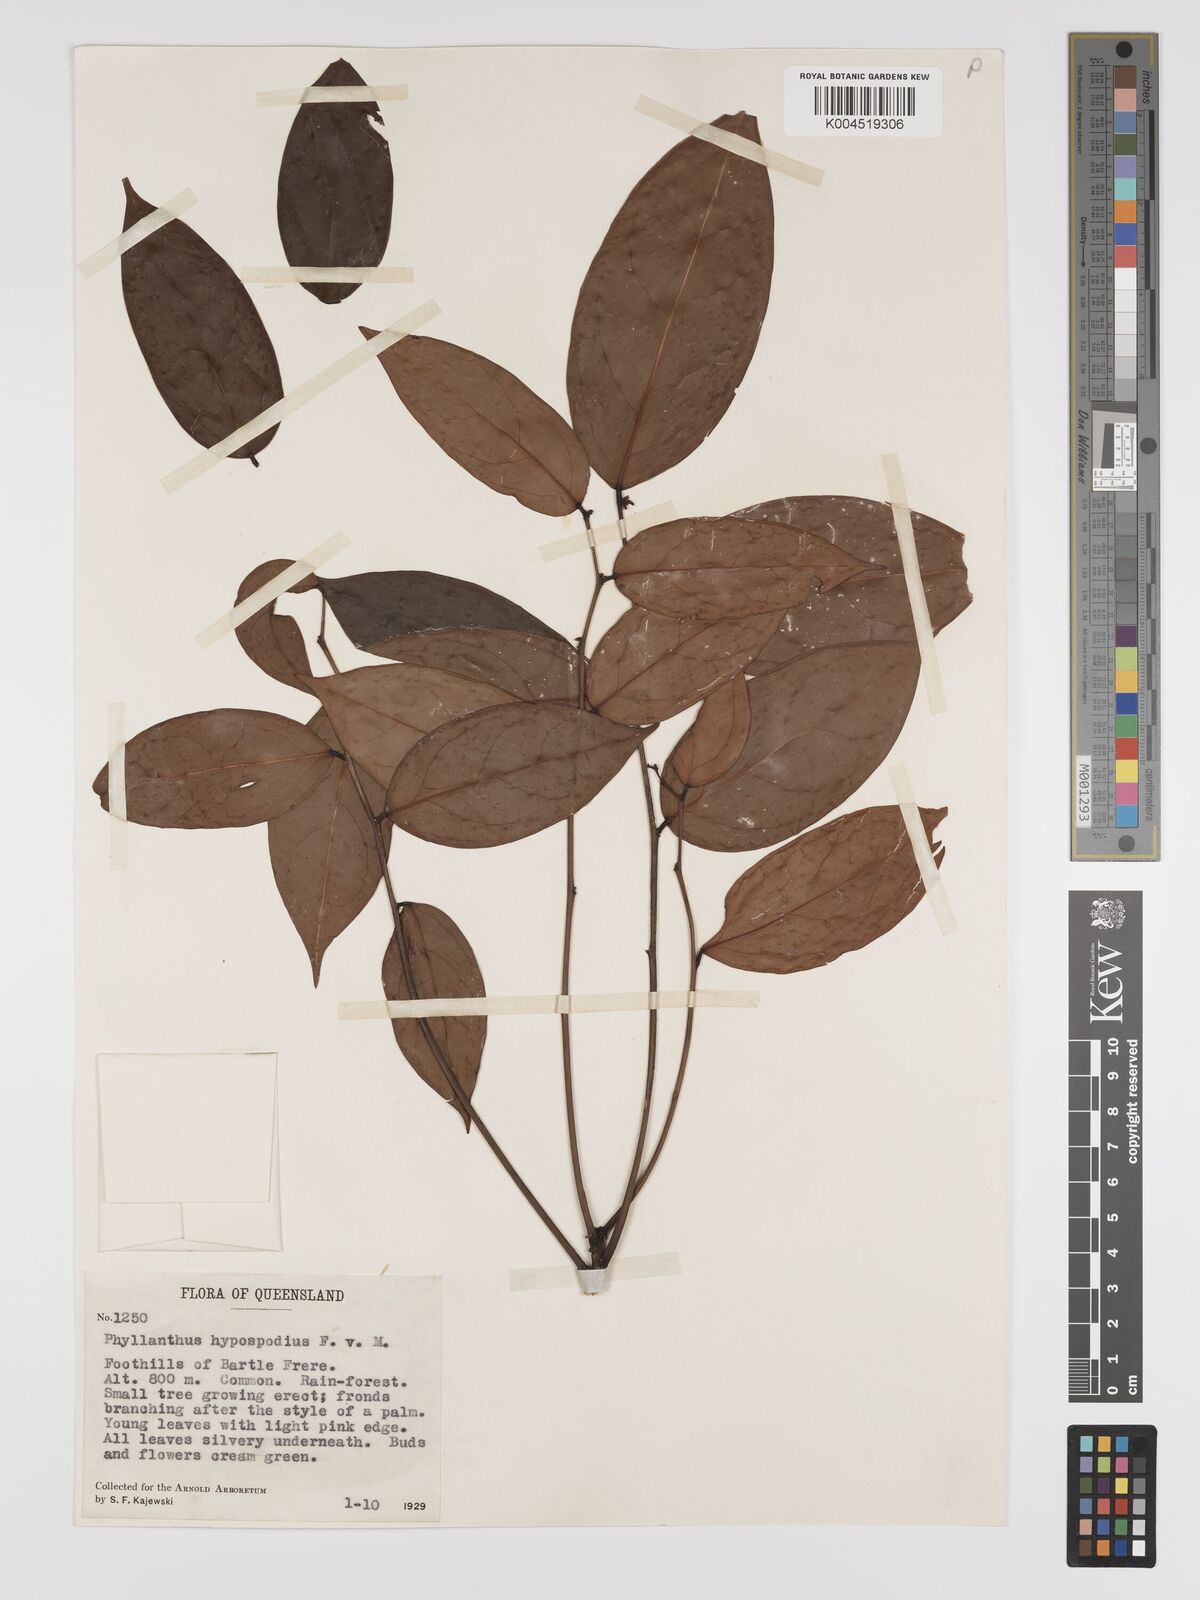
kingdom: Plantae
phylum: Tracheophyta
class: Magnoliopsida
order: Malpighiales
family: Phyllanthaceae
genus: Phyllanthus
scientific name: Phyllanthus hypospodius
